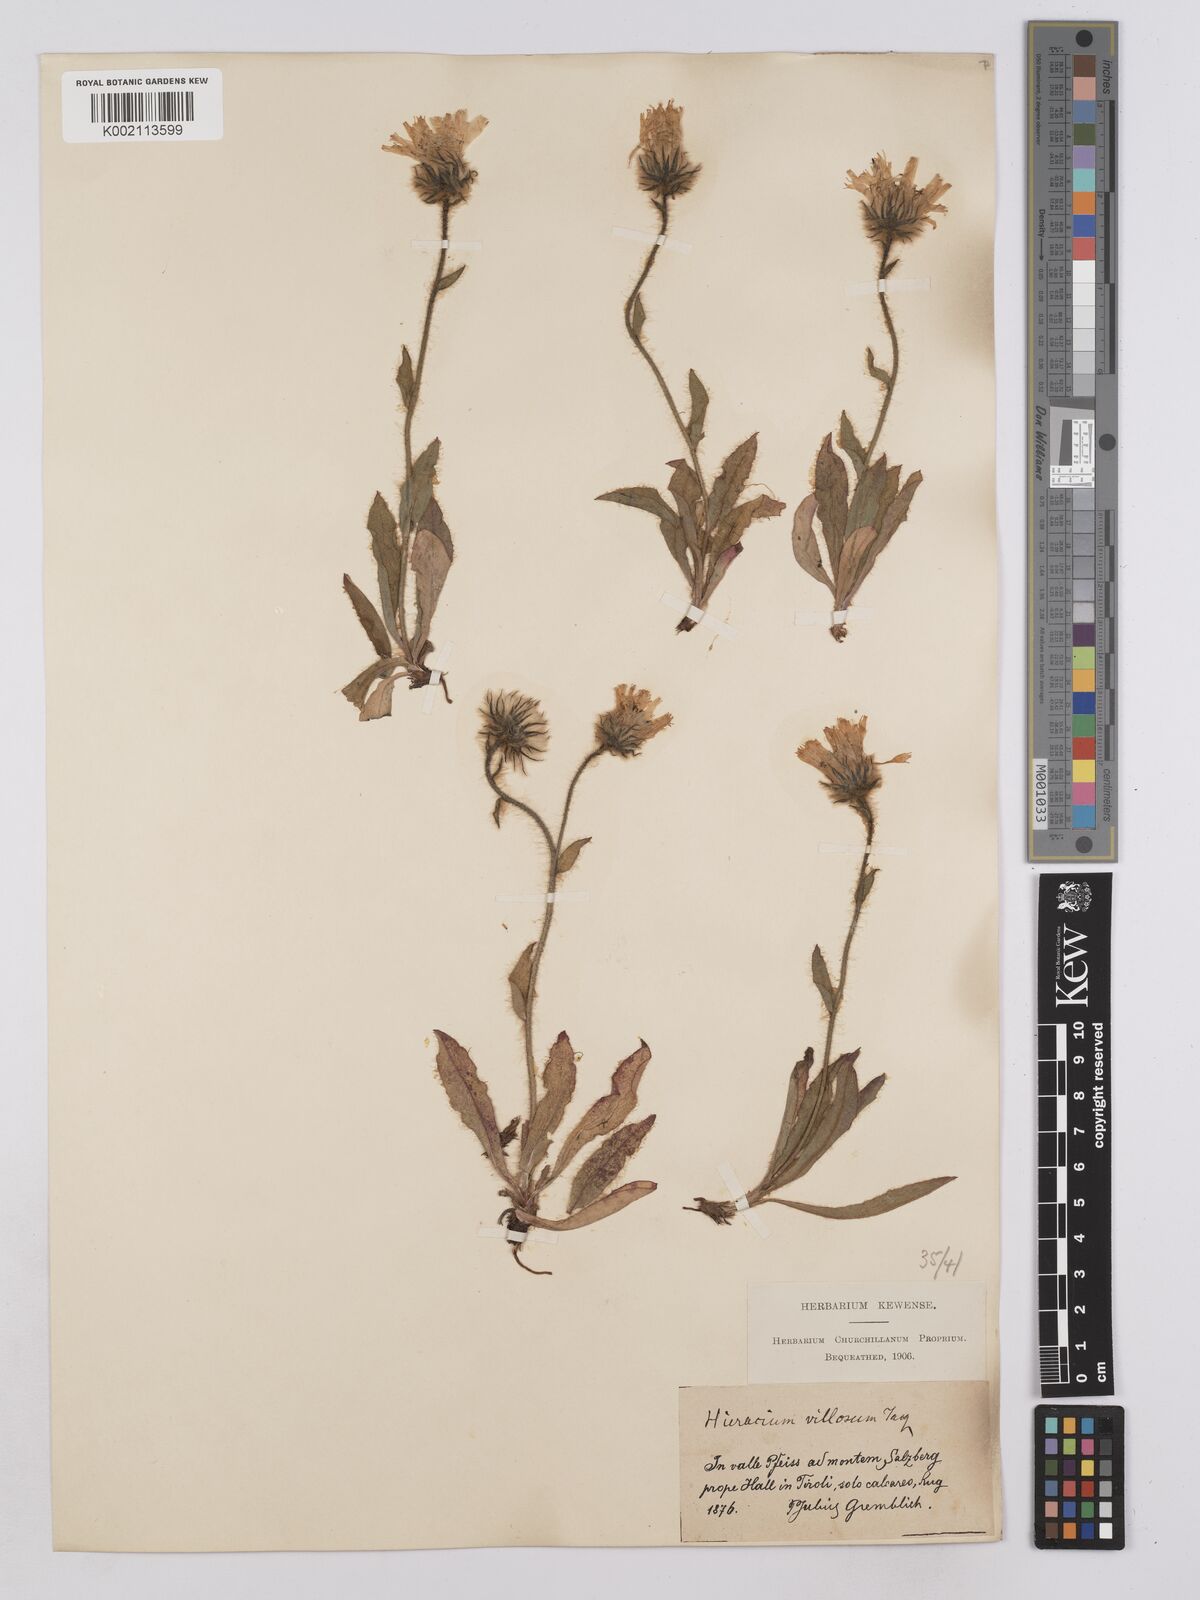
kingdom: Plantae
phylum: Tracheophyta
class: Magnoliopsida
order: Asterales
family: Asteraceae
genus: Hieracium
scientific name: Hieracium villosum
